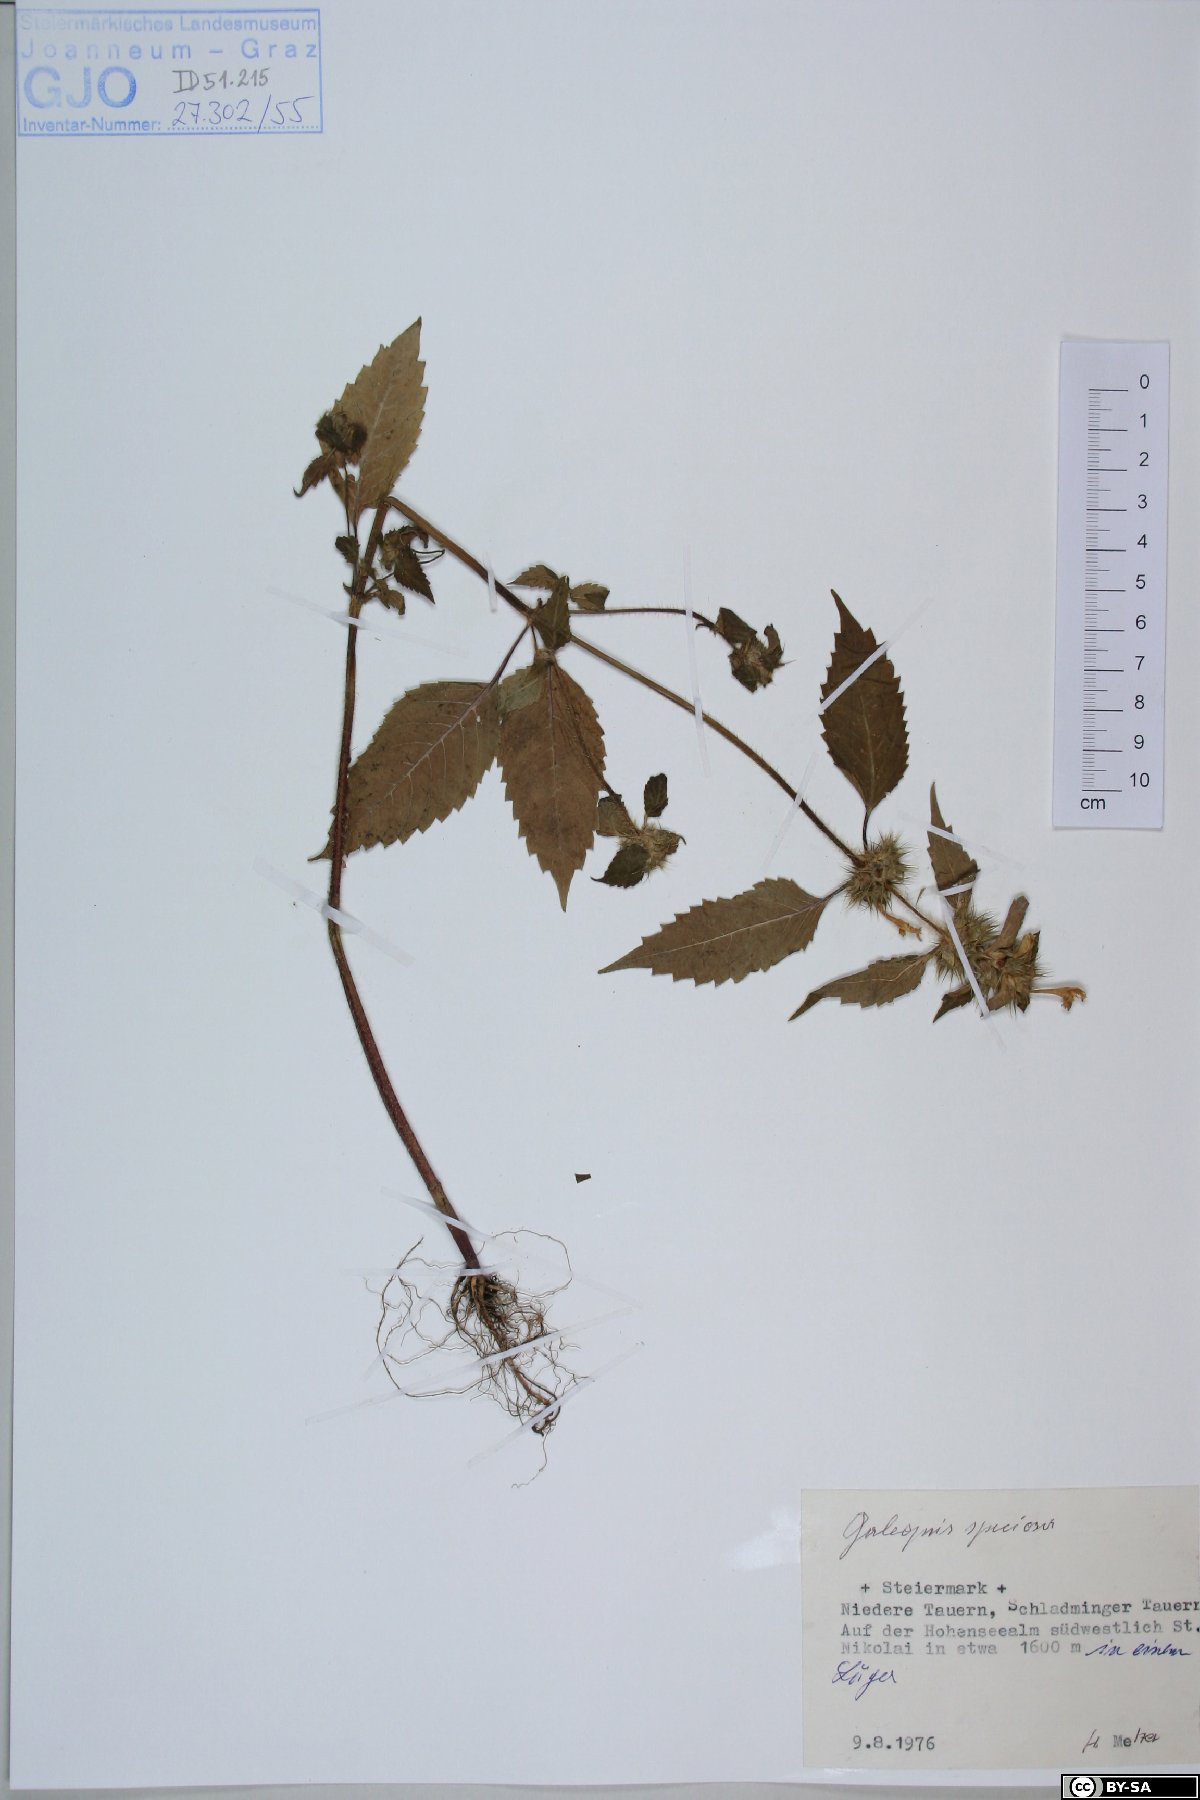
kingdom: Plantae
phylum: Tracheophyta
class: Magnoliopsida
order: Lamiales
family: Lamiaceae
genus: Galeopsis
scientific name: Galeopsis speciosa
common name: Large-flowered hemp-nettle
